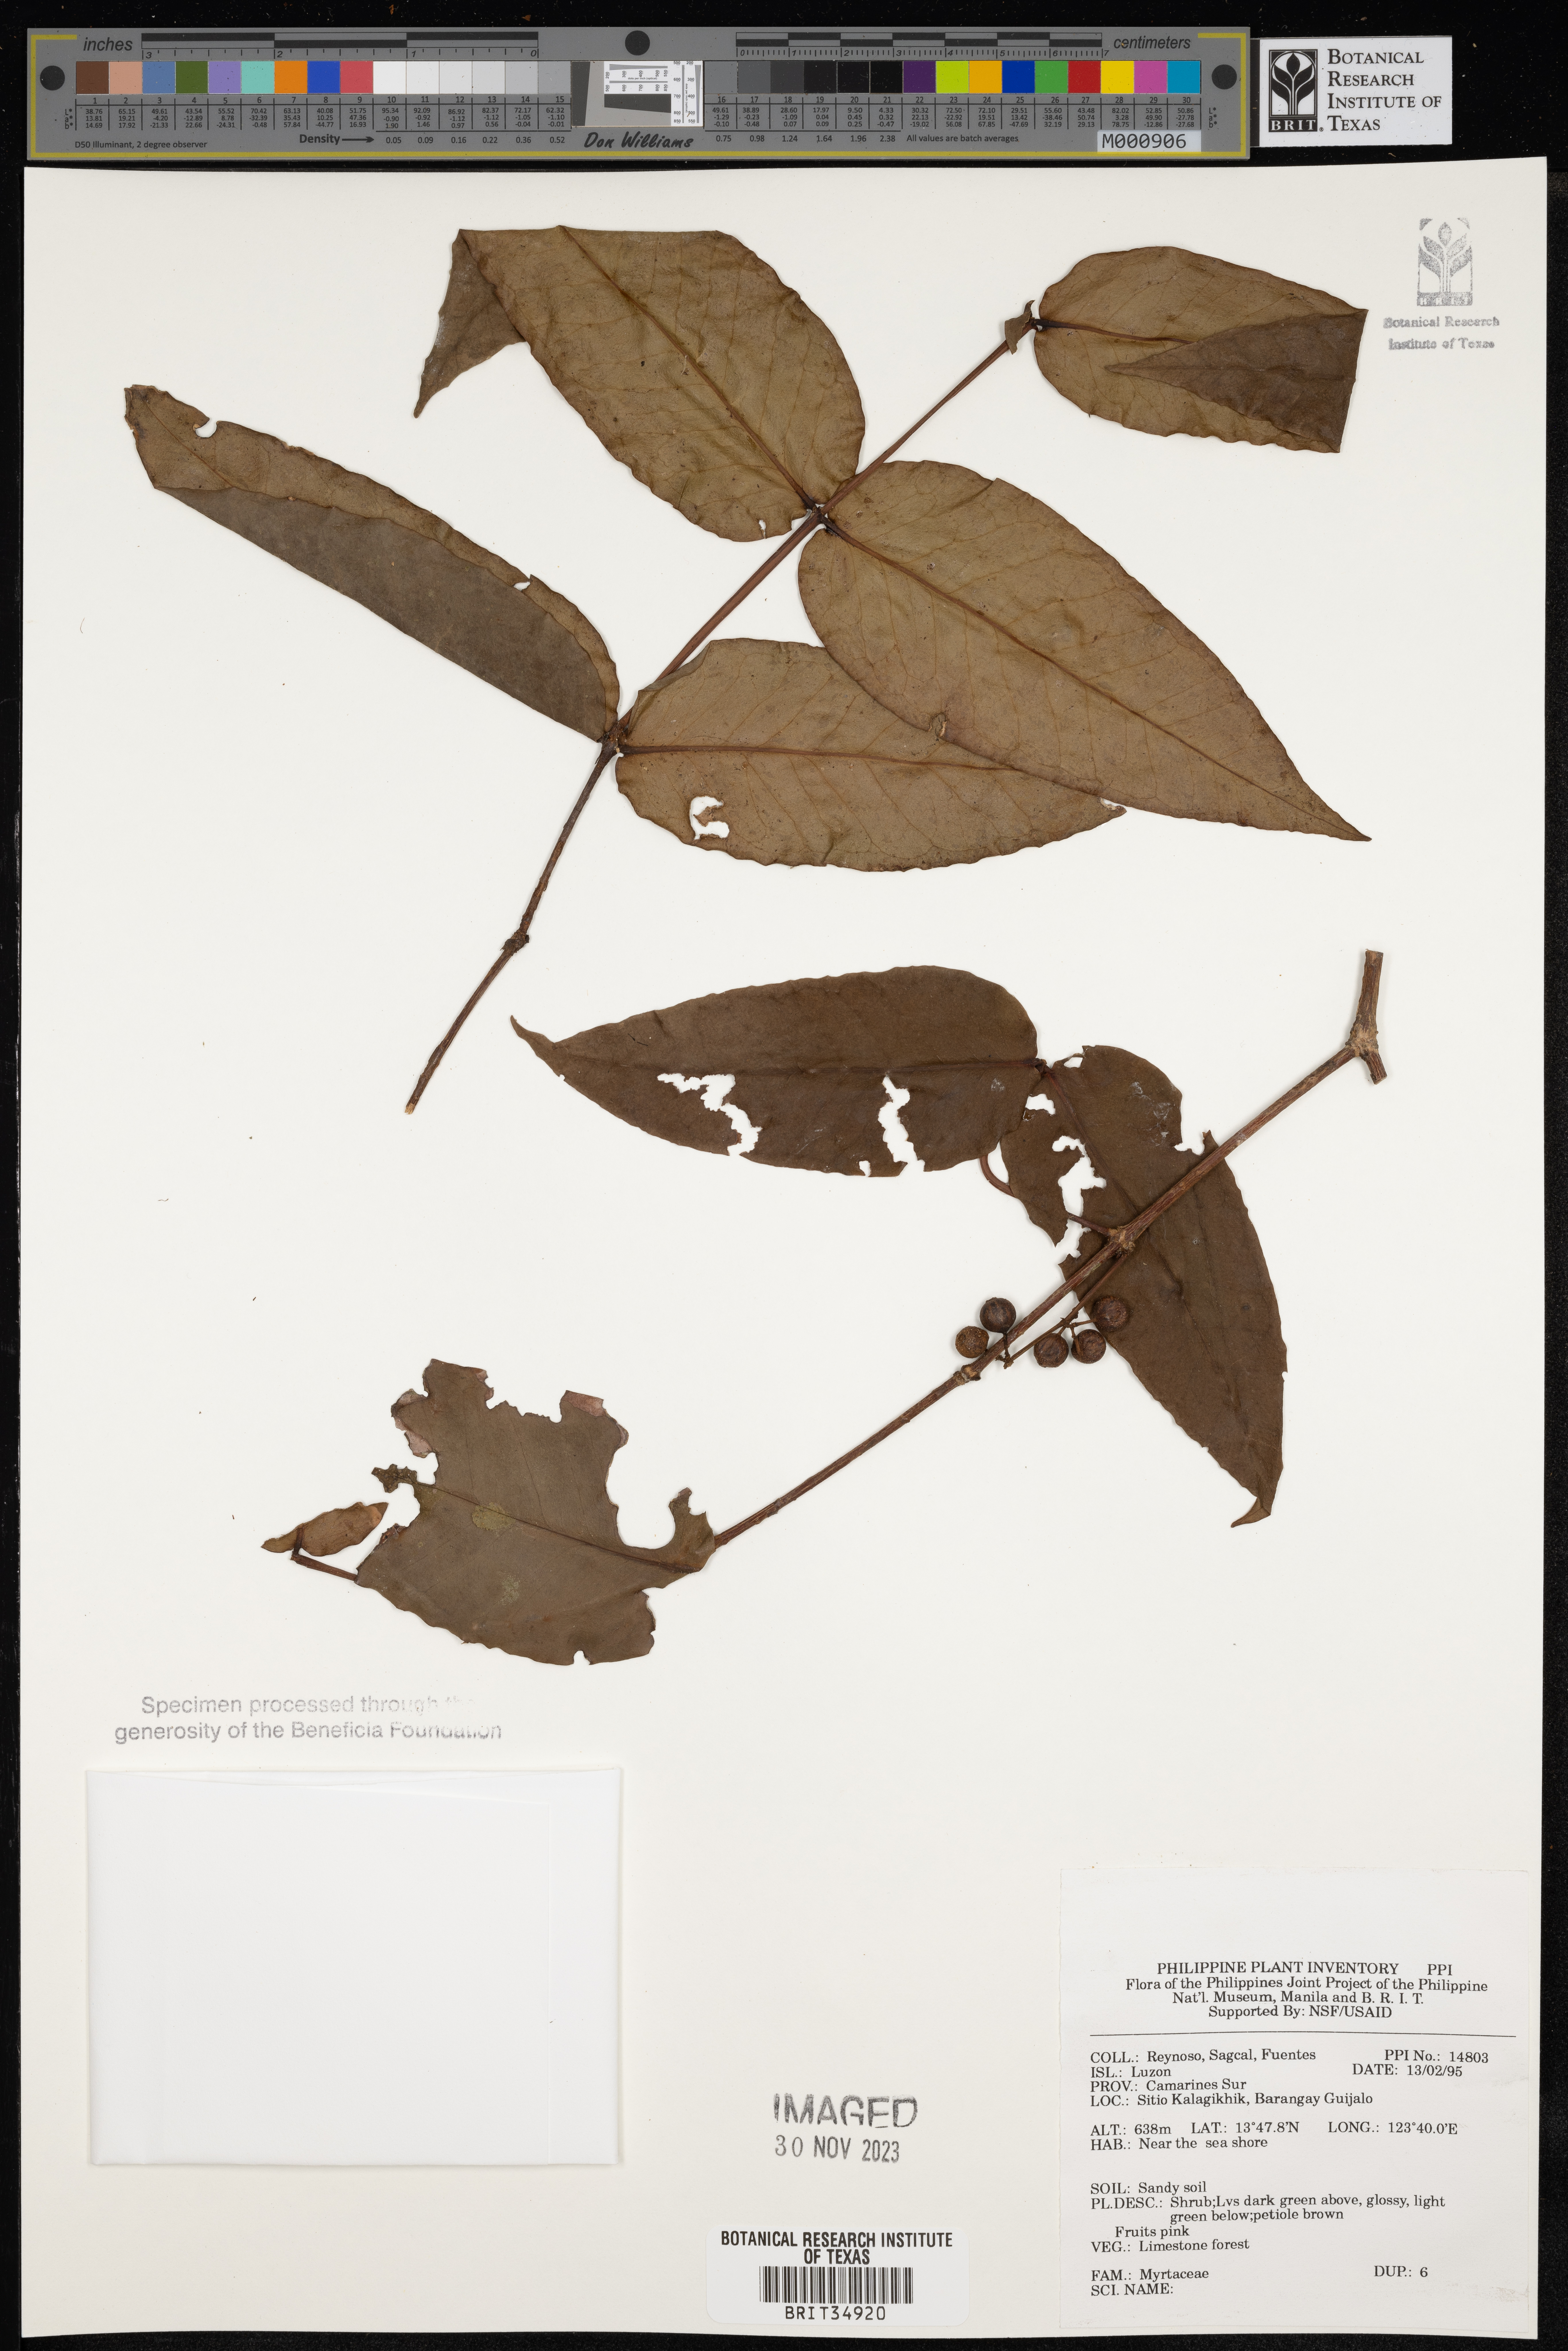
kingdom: Plantae
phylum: Tracheophyta
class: Magnoliopsida
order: Myrtales
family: Myrtaceae
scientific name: Myrtaceae
